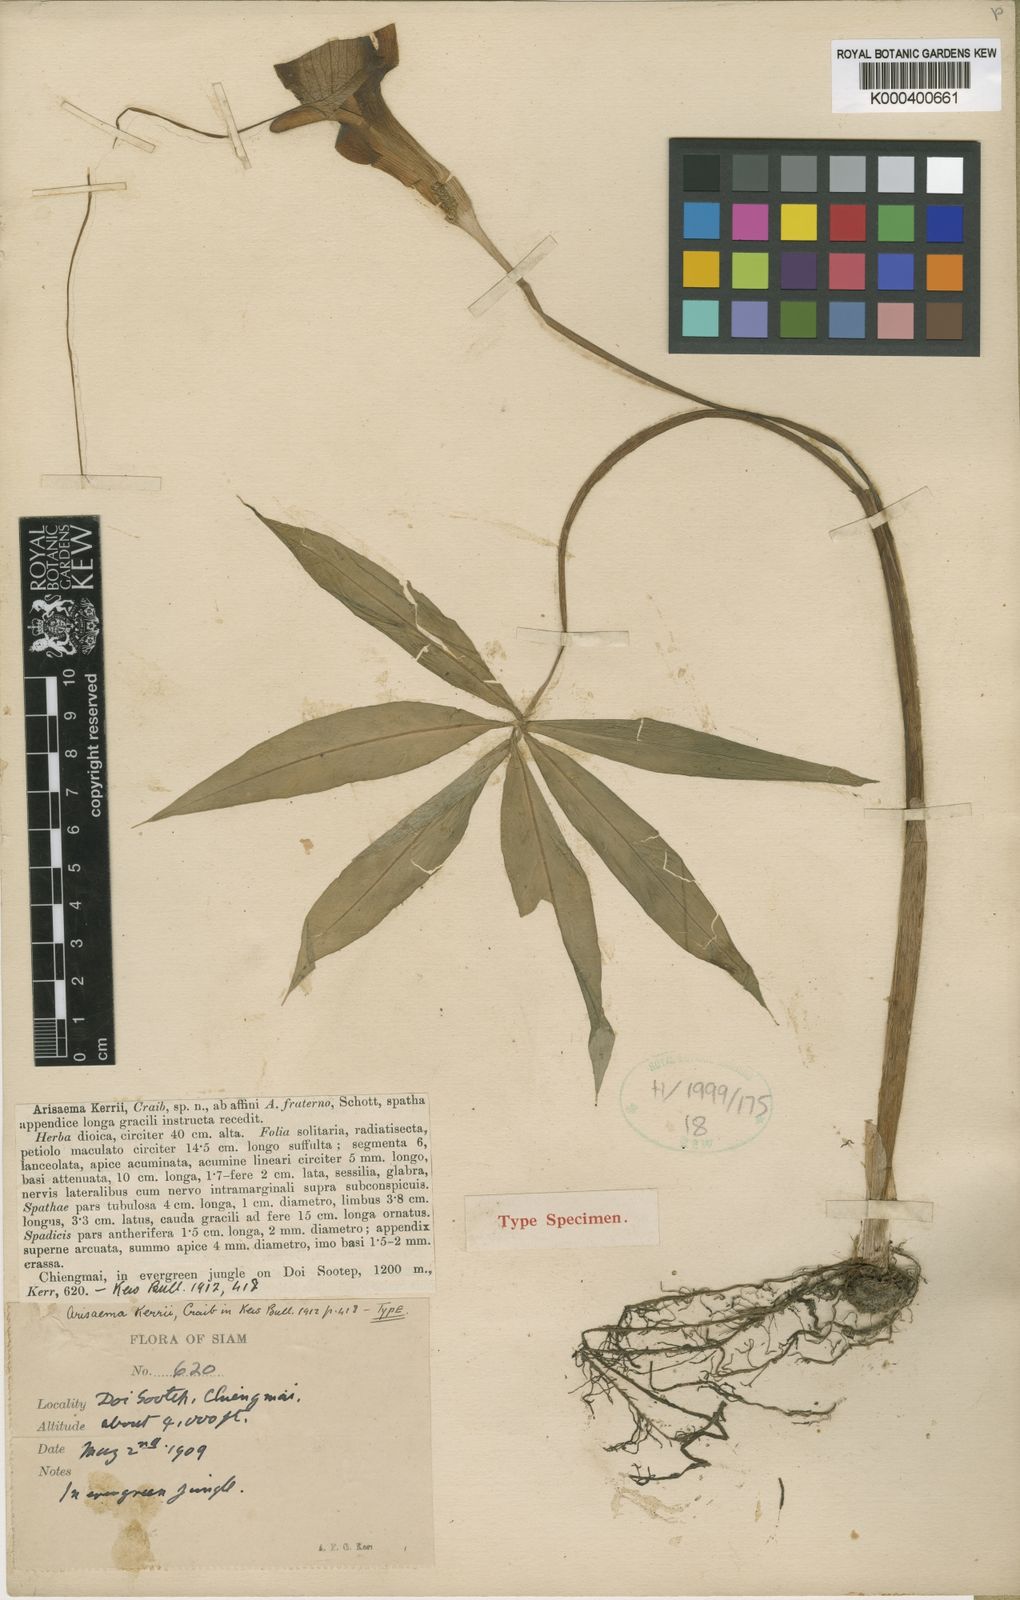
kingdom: Plantae
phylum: Tracheophyta
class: Liliopsida
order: Alismatales
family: Araceae
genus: Arisaema
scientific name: Arisaema kerrii
